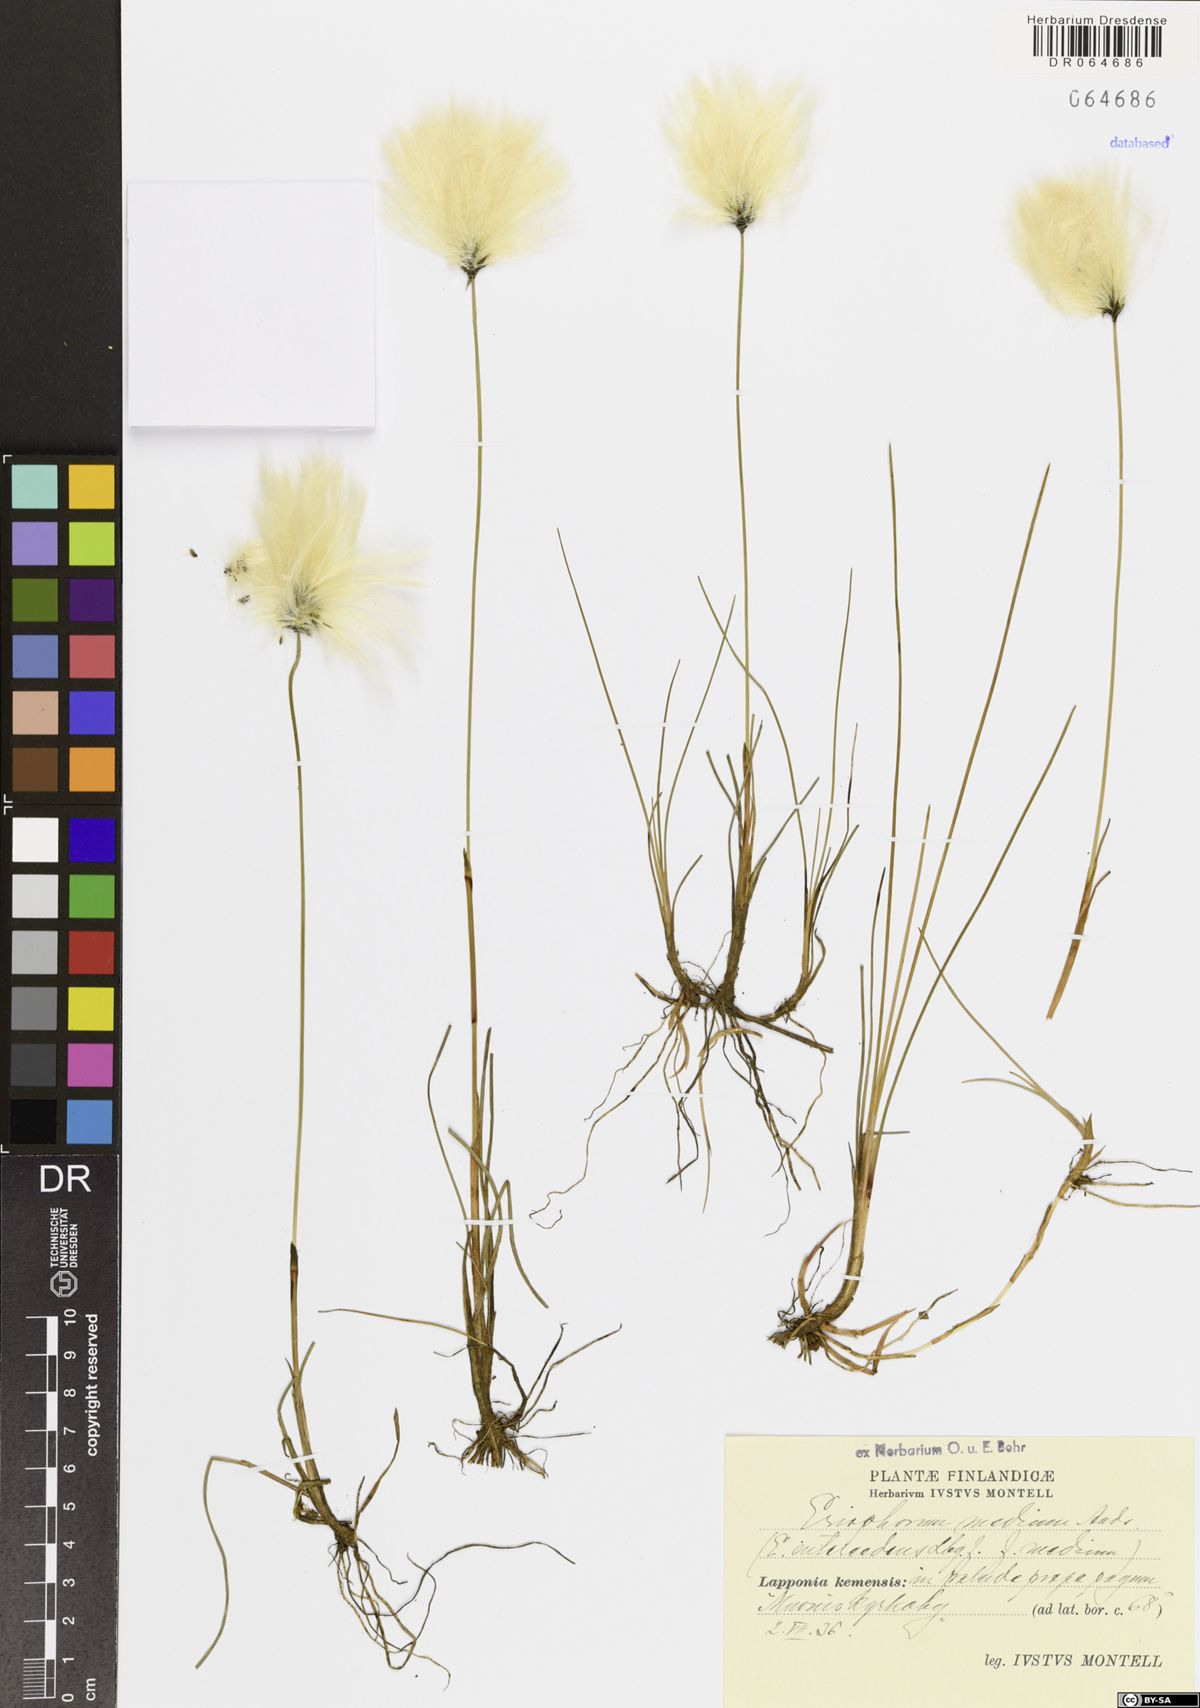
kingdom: Plantae
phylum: Tracheophyta
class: Liliopsida
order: Poales
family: Cyperaceae
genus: Eriophorum
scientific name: Eriophorum medium
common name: Intermediate cottongrass
